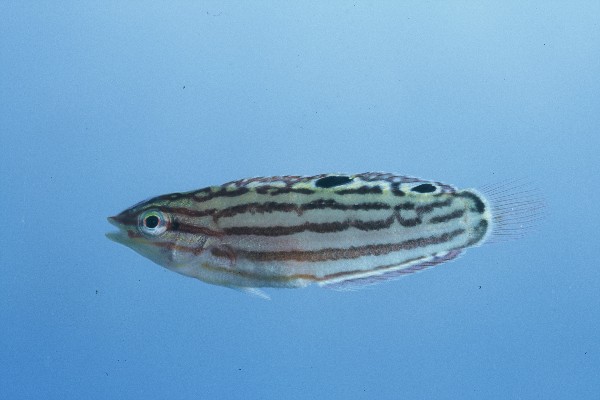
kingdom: Animalia
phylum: Chordata
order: Perciformes
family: Labridae
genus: Halichoeres
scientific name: Halichoeres cosmetus
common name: Adorned wrasse
